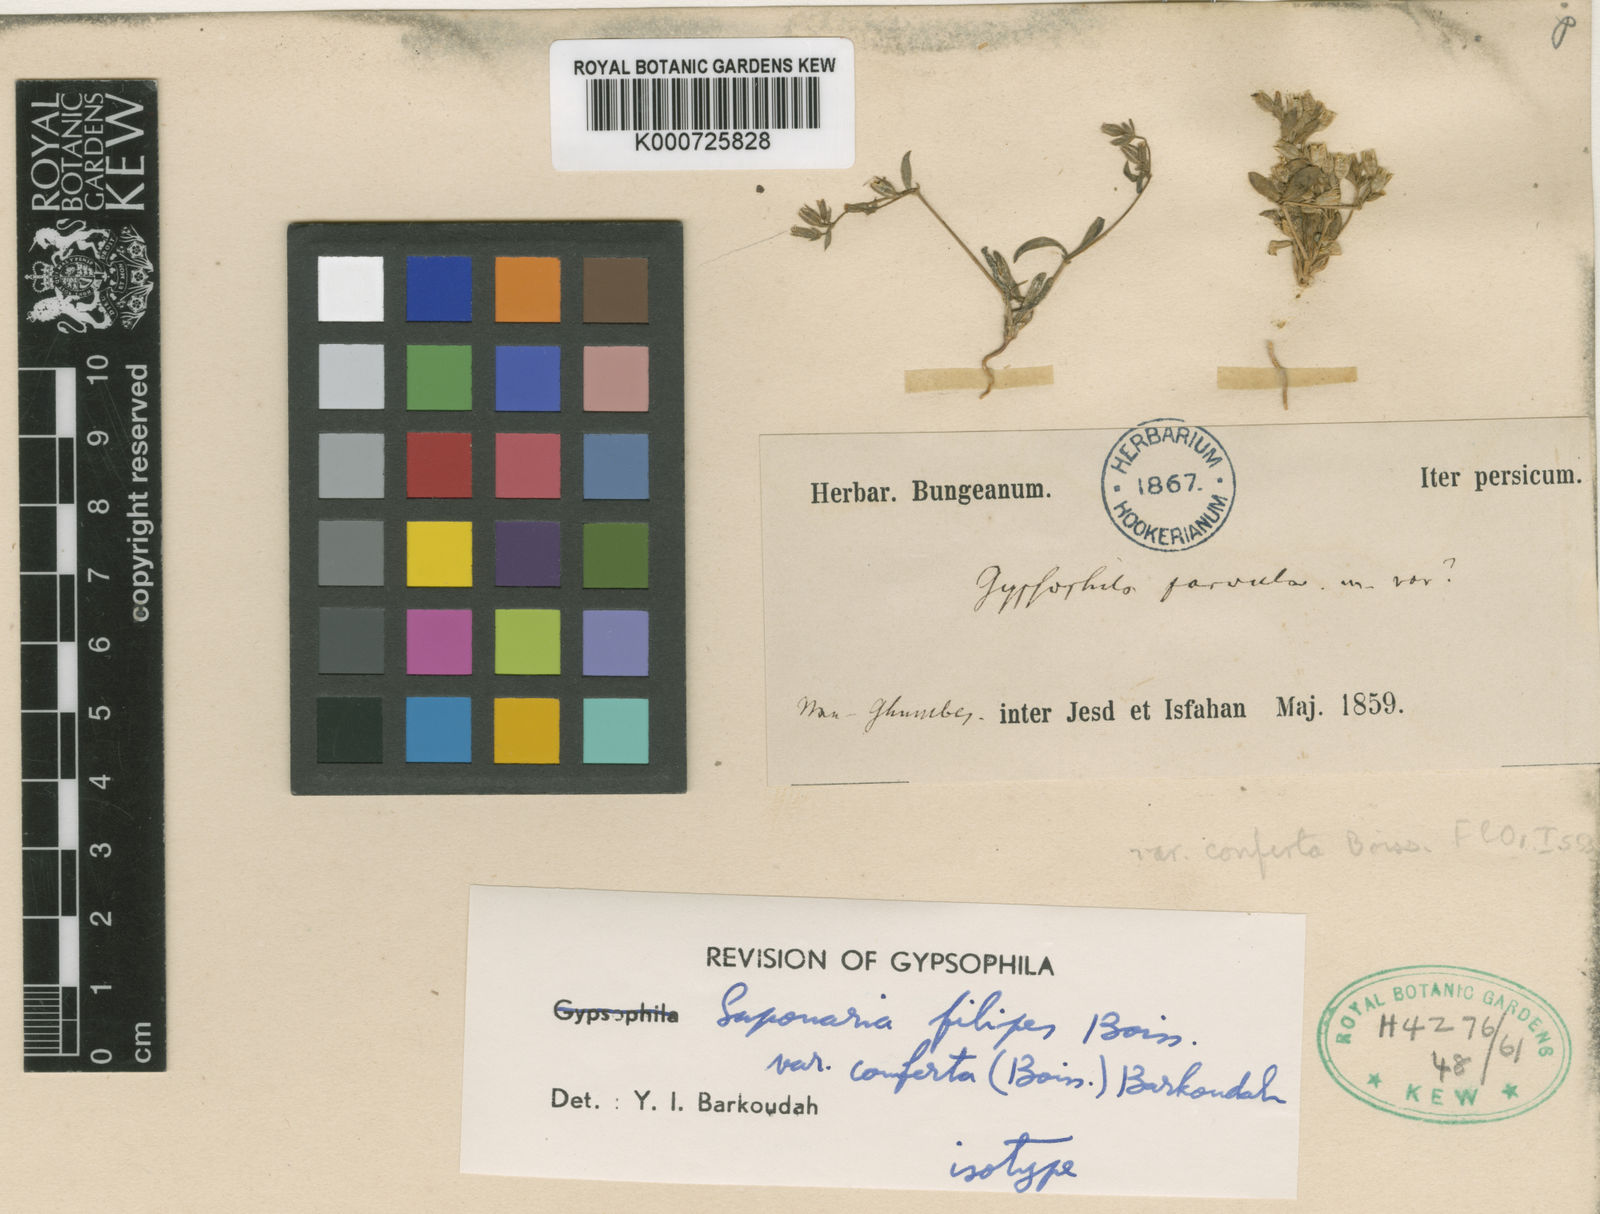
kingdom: Plantae
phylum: Tracheophyta
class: Magnoliopsida
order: Caryophyllales
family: Caryophyllaceae
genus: Psammophiliella
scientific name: Psammophiliella filipes
